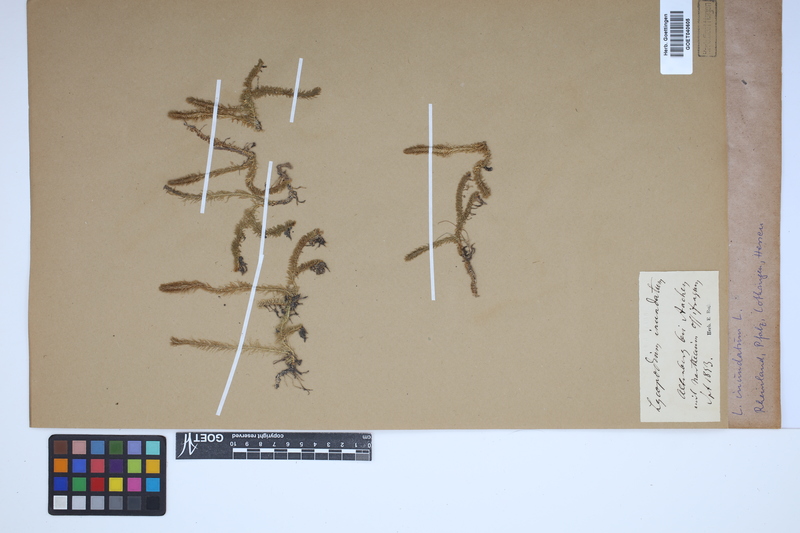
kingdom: Plantae
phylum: Tracheophyta
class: Lycopodiopsida
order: Lycopodiales
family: Lycopodiaceae
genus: Lycopodiella
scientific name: Lycopodiella inundata
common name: Marsh clubmoss
